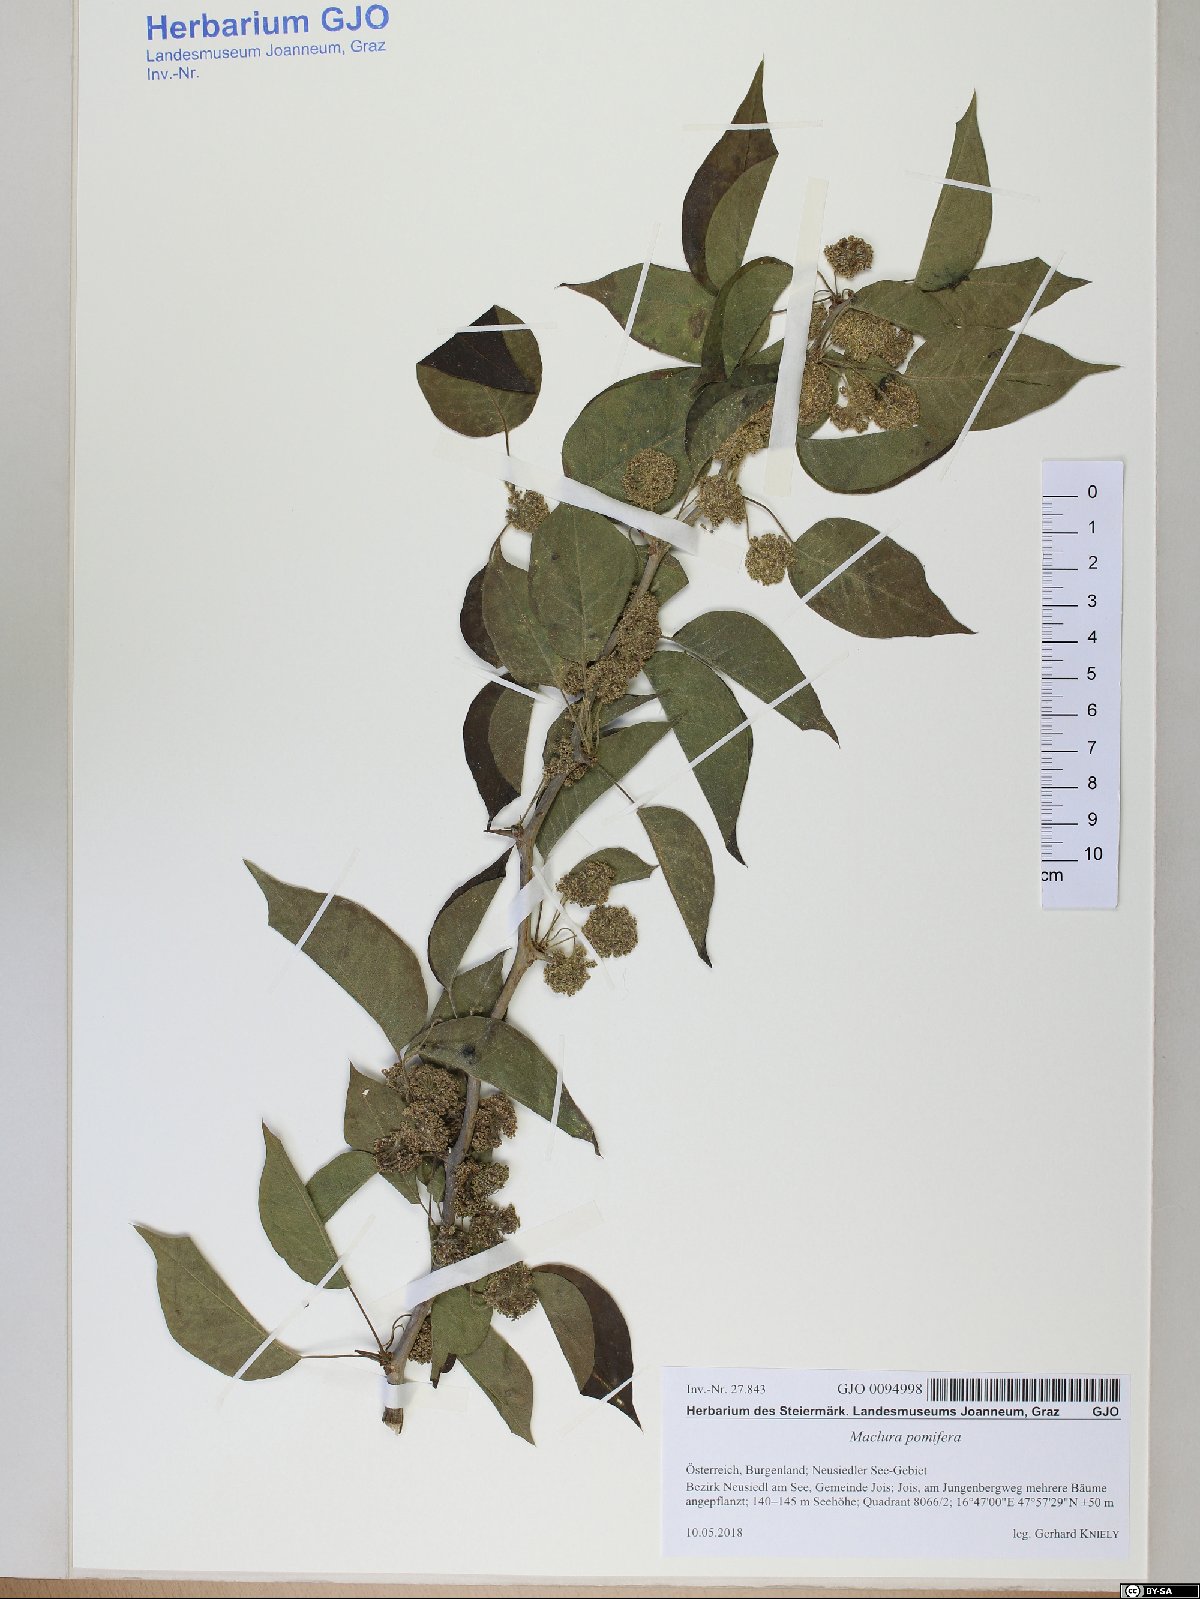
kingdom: Plantae
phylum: Tracheophyta
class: Magnoliopsida
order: Rosales
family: Moraceae
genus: Maclura
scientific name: Maclura pomifera
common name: Osage-orange
